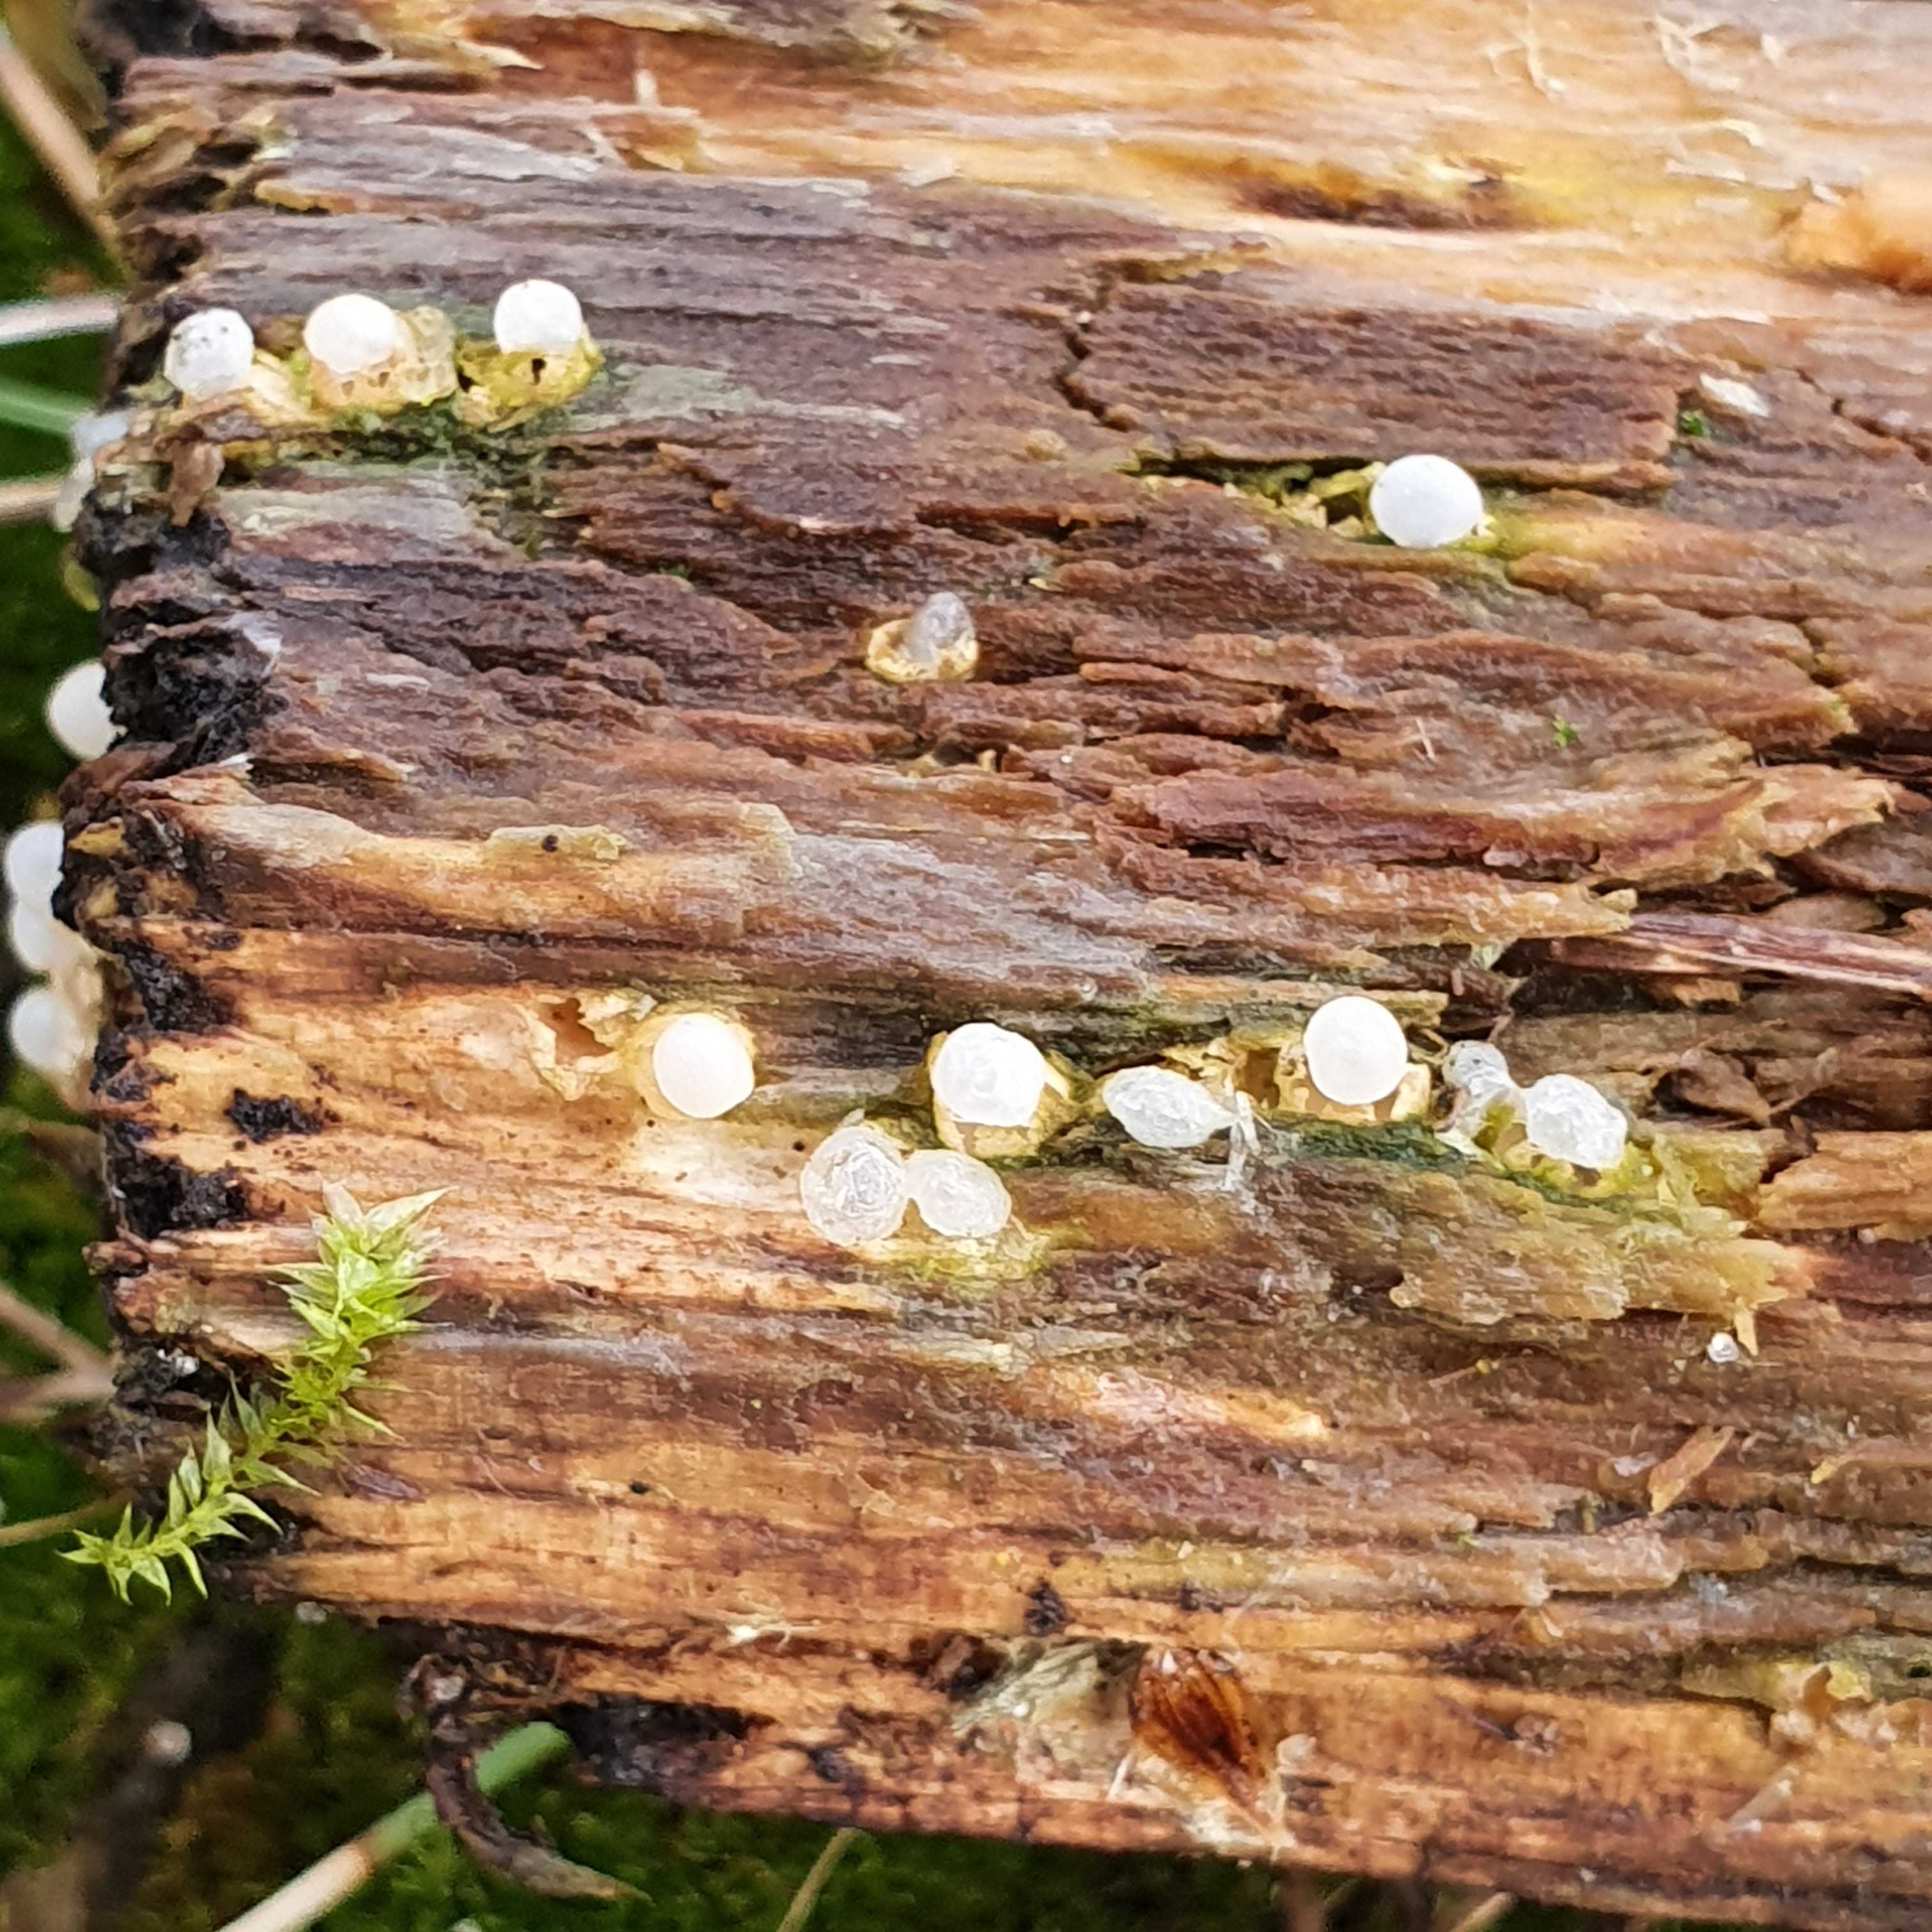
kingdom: Fungi
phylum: Basidiomycota
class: Agaricomycetes
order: Geastrales
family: Geastraceae
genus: Sphaerobolus
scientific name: Sphaerobolus stellatus
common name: bombekaster
